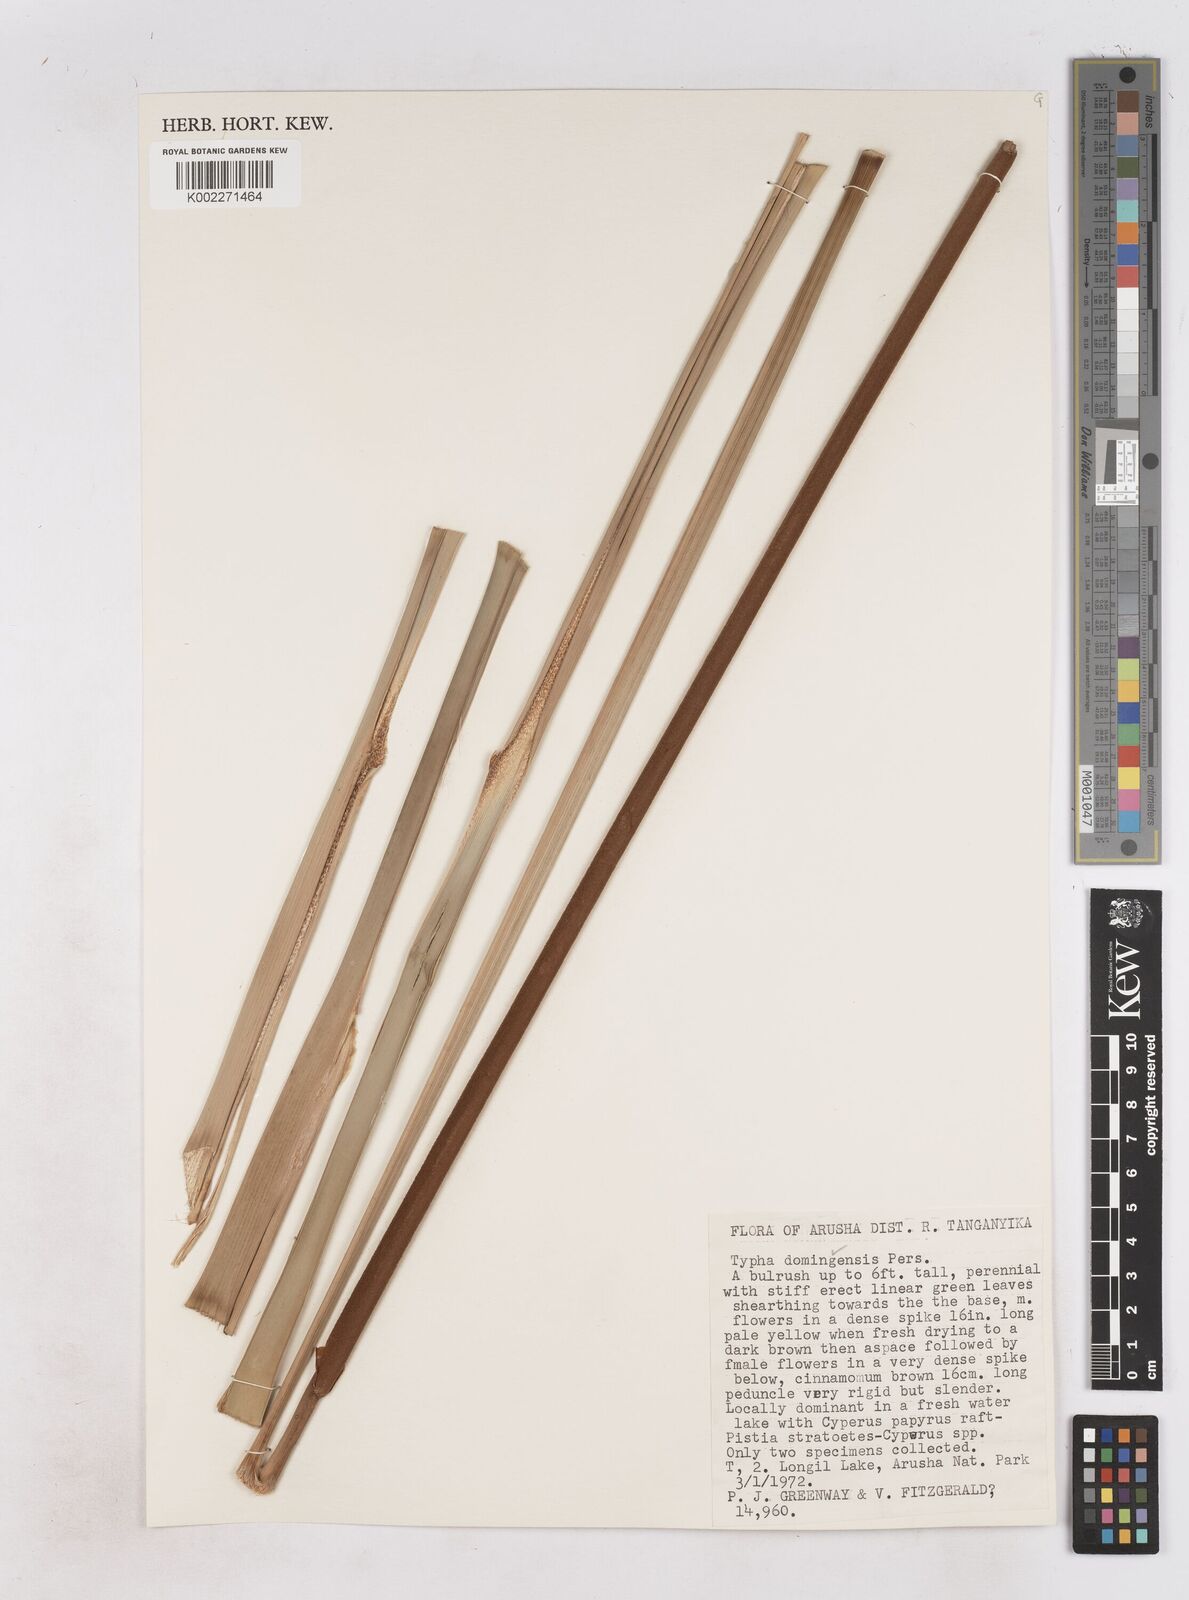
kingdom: Plantae
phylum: Tracheophyta
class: Liliopsida
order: Poales
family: Typhaceae
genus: Typha
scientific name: Typha domingensis
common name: Southern cattail
